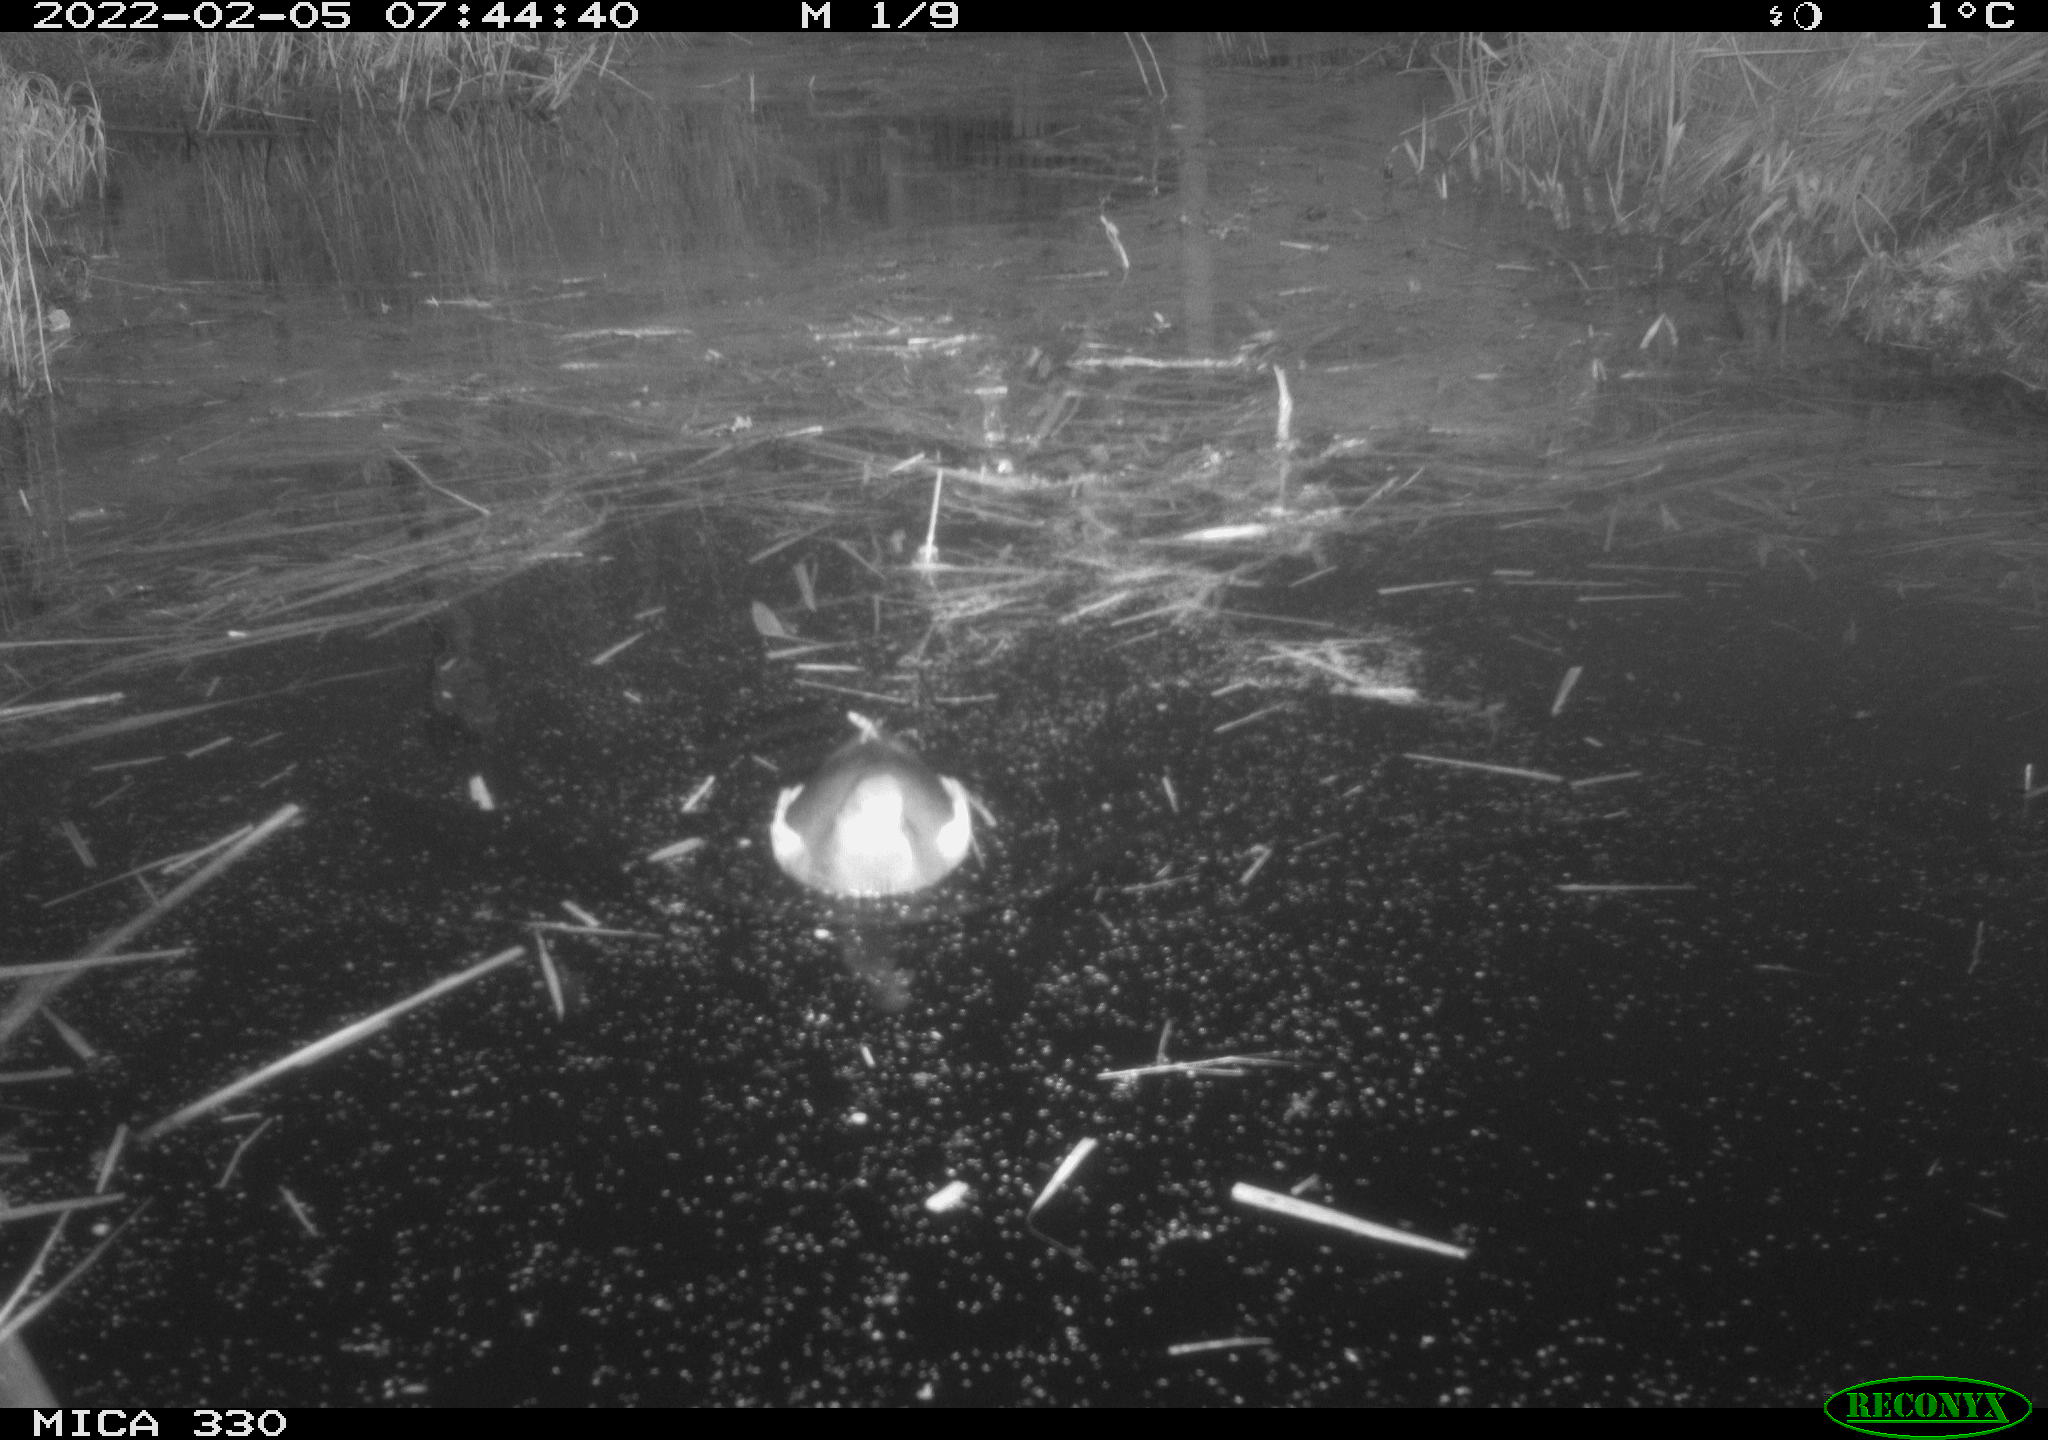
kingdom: Animalia
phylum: Chordata
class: Aves
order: Gruiformes
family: Rallidae
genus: Gallinula
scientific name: Gallinula chloropus
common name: Common moorhen
